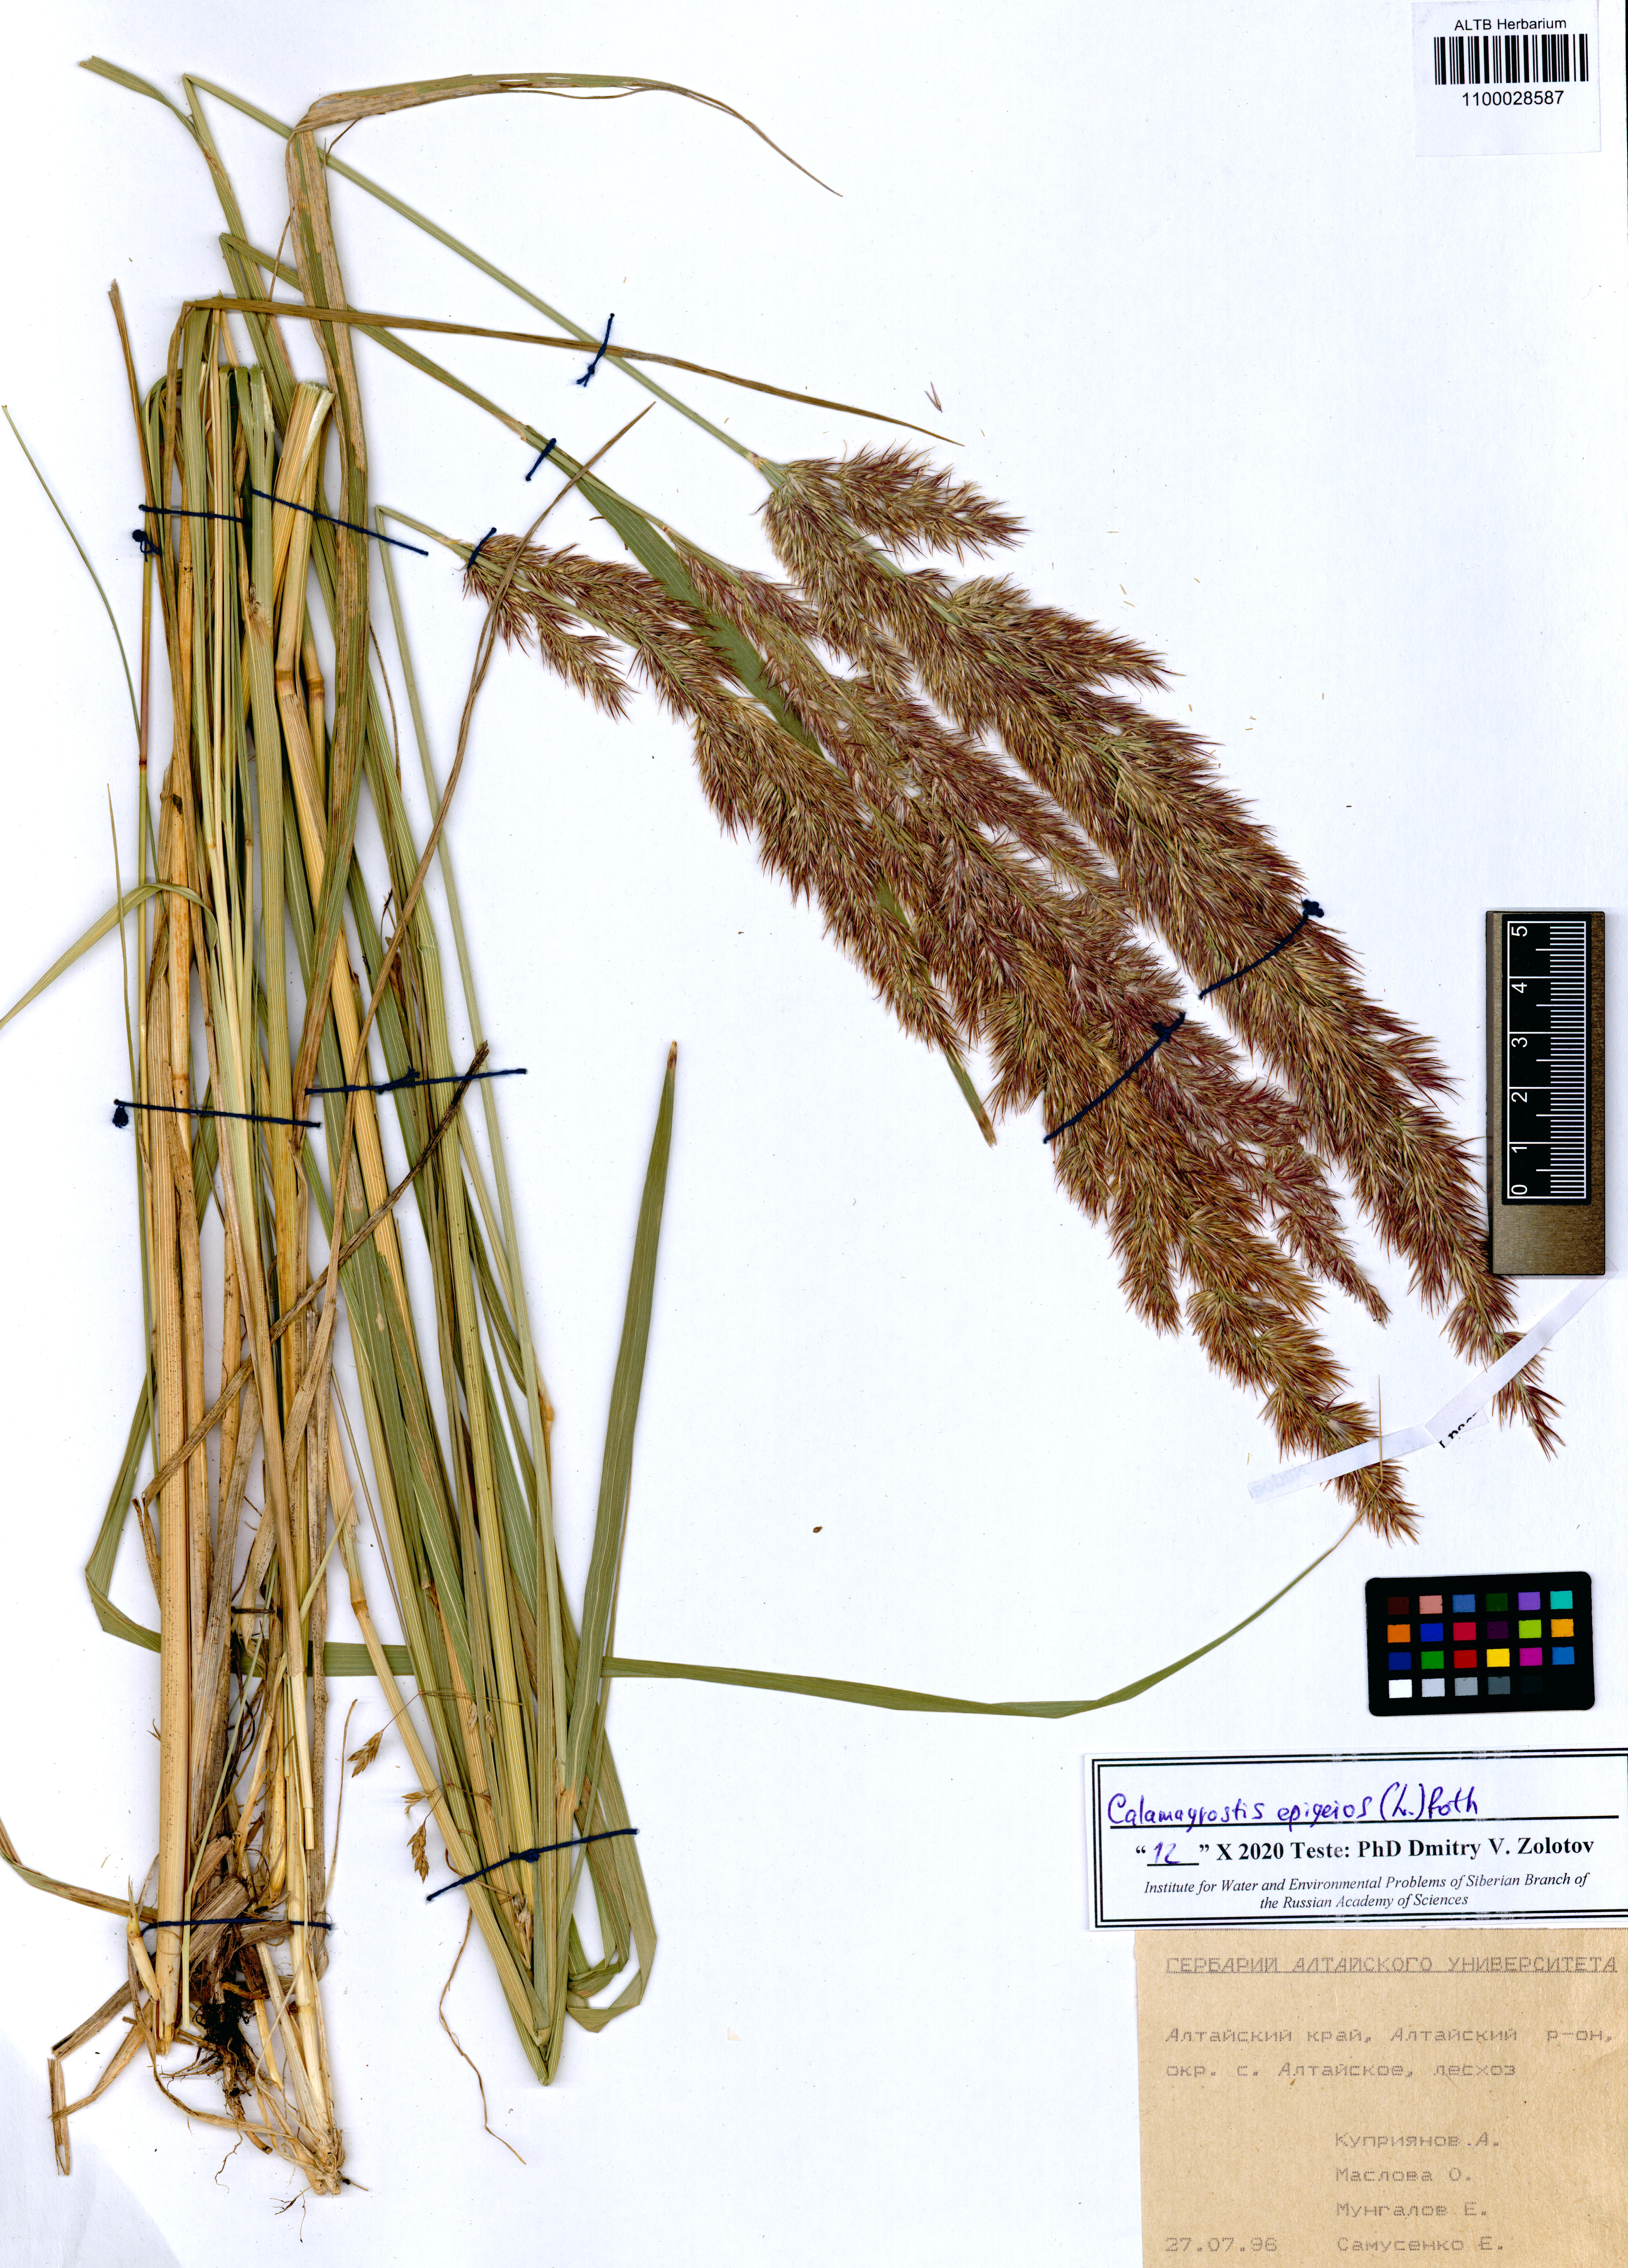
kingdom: Plantae
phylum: Tracheophyta
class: Liliopsida
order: Poales
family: Poaceae
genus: Calamagrostis
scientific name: Calamagrostis epigejos
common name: Wood small-reed
